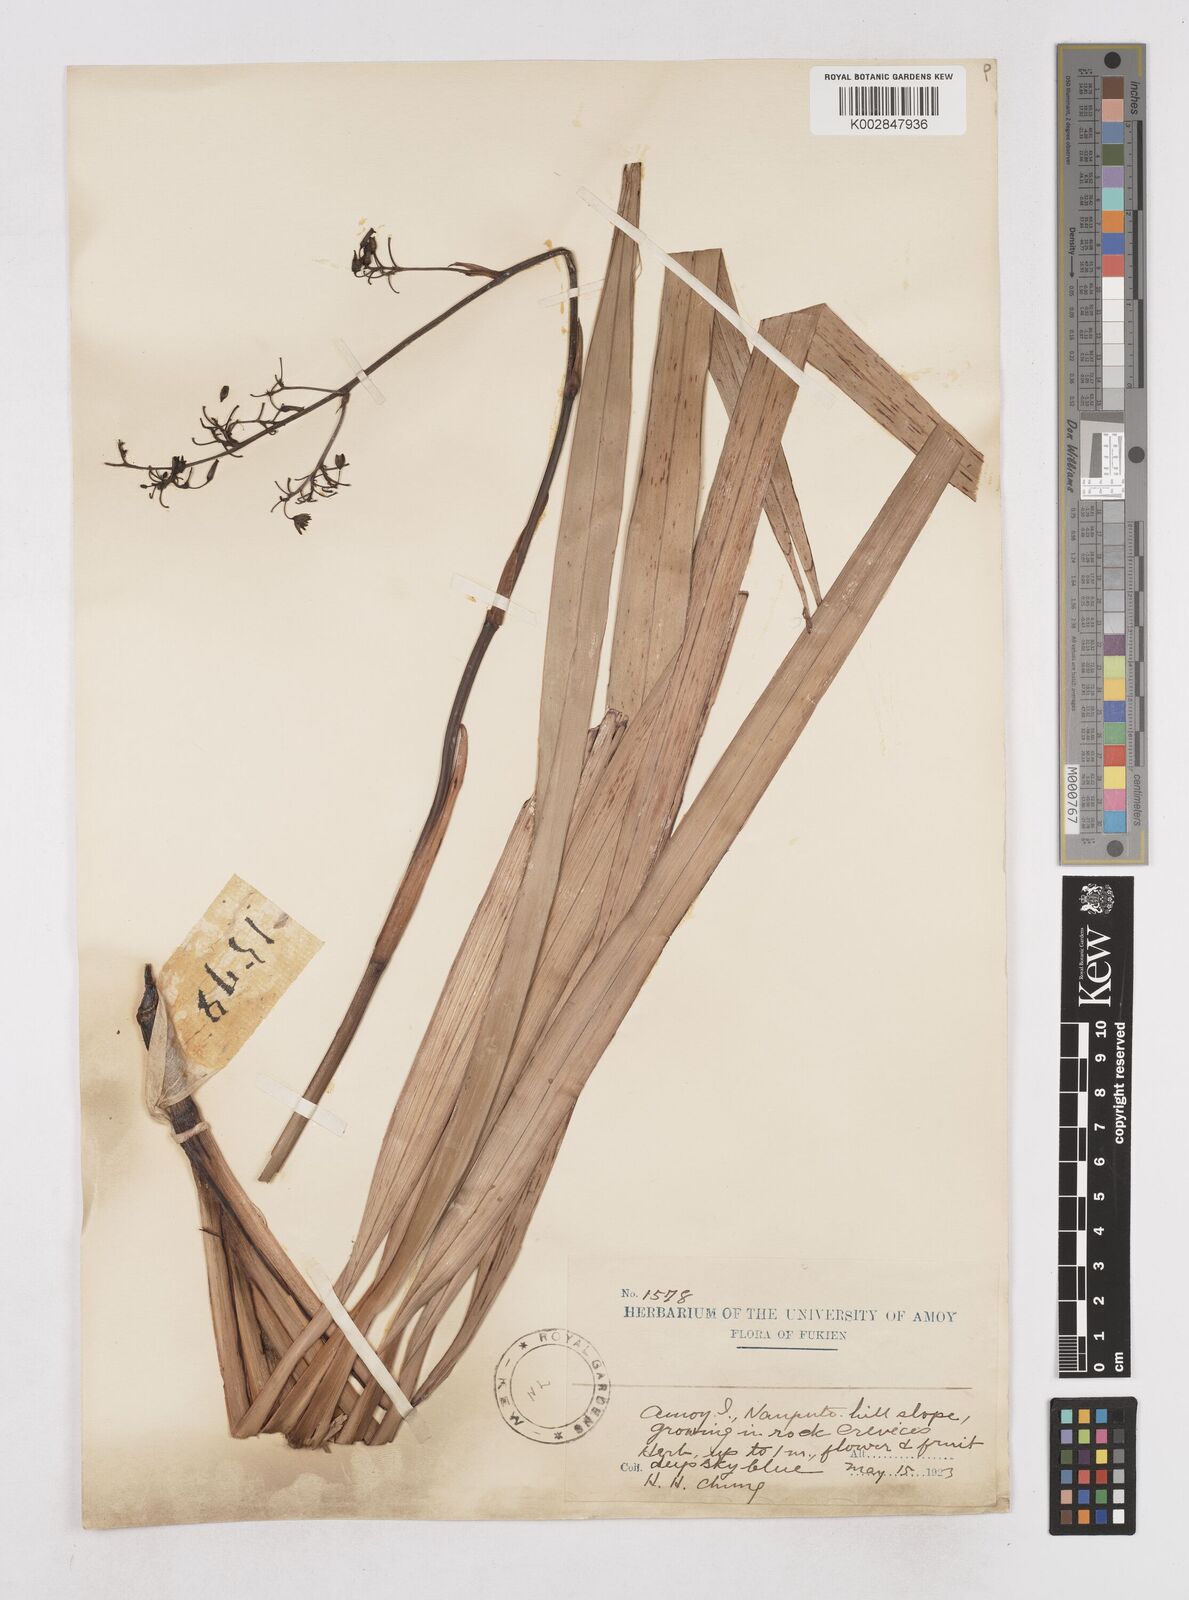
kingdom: Plantae
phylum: Tracheophyta
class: Liliopsida
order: Asparagales
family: Asphodelaceae
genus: Dianella
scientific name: Dianella ensifolia
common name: New zealand lilyplant
